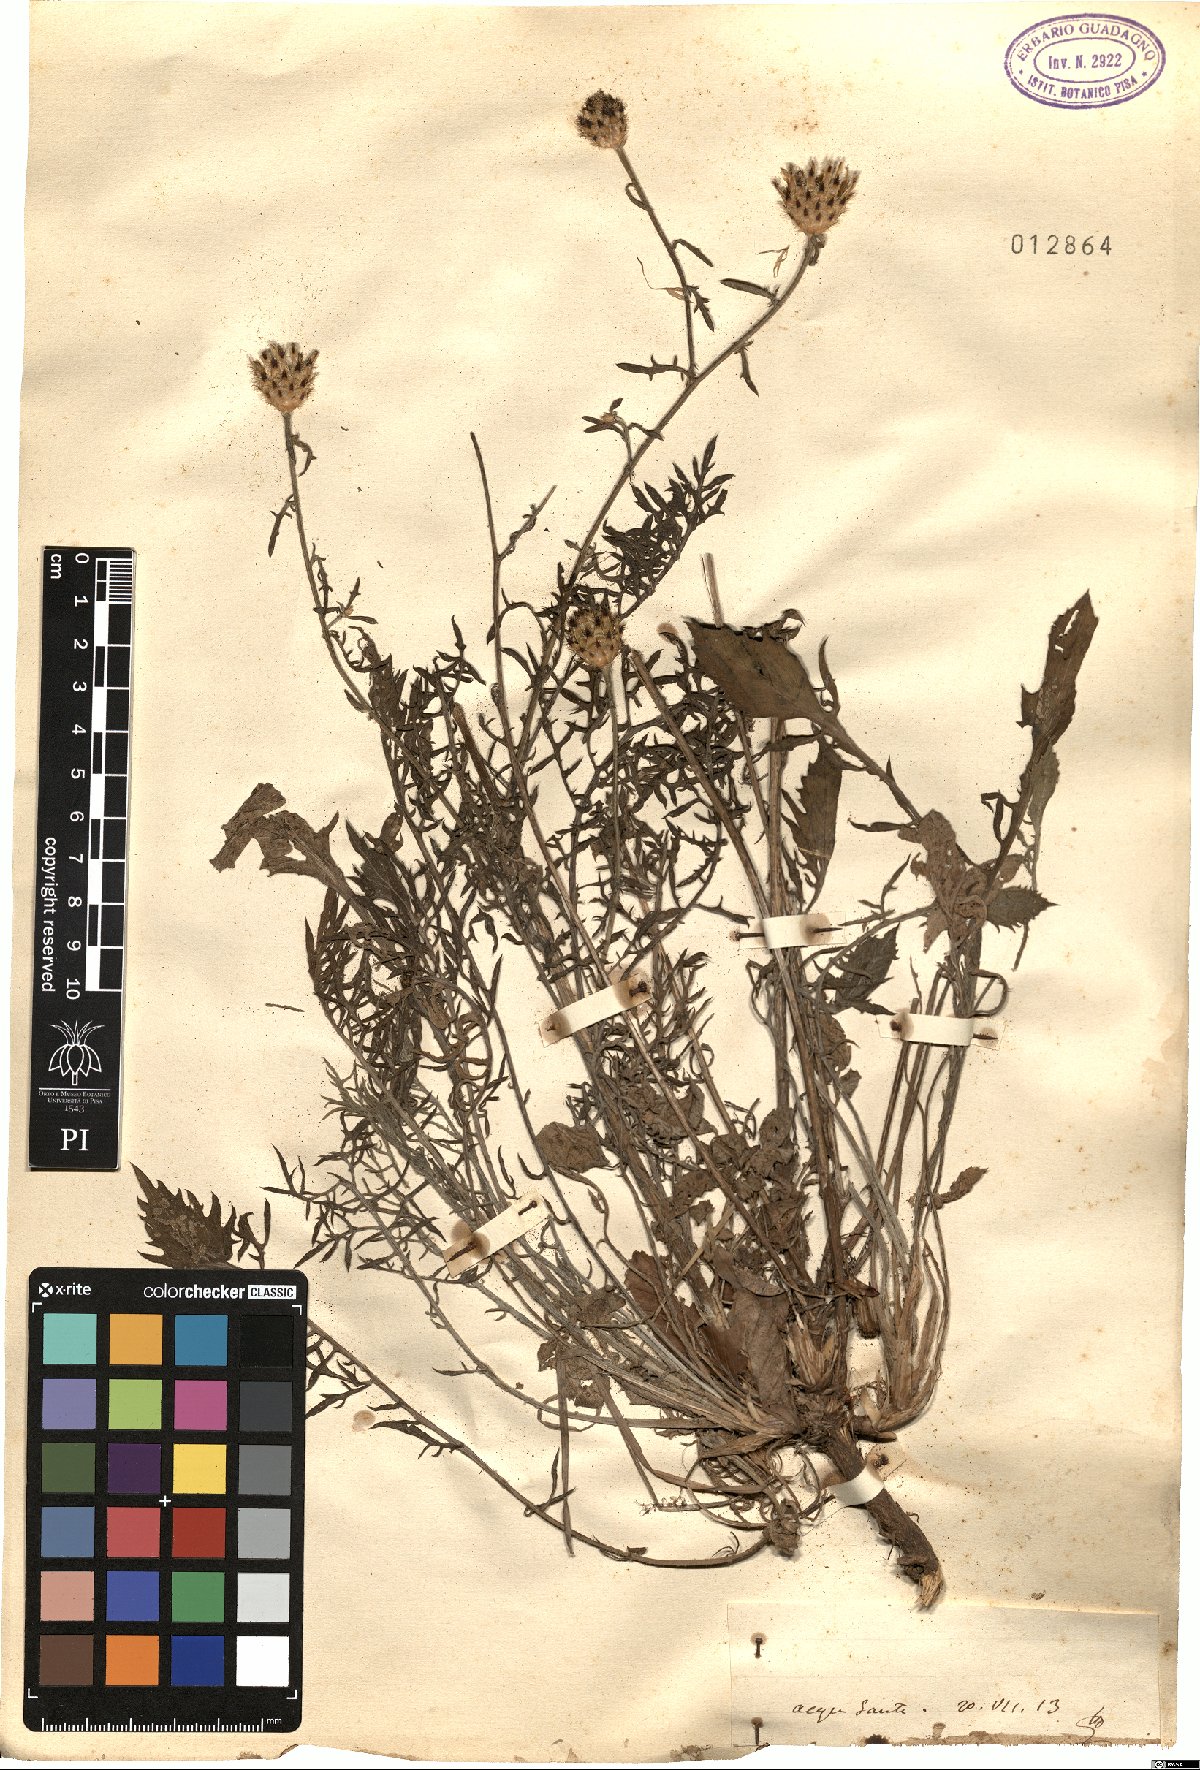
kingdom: Plantae
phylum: Tracheophyta
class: Magnoliopsida
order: Asterales
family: Asteraceae
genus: Centaurea
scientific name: Centaurea
